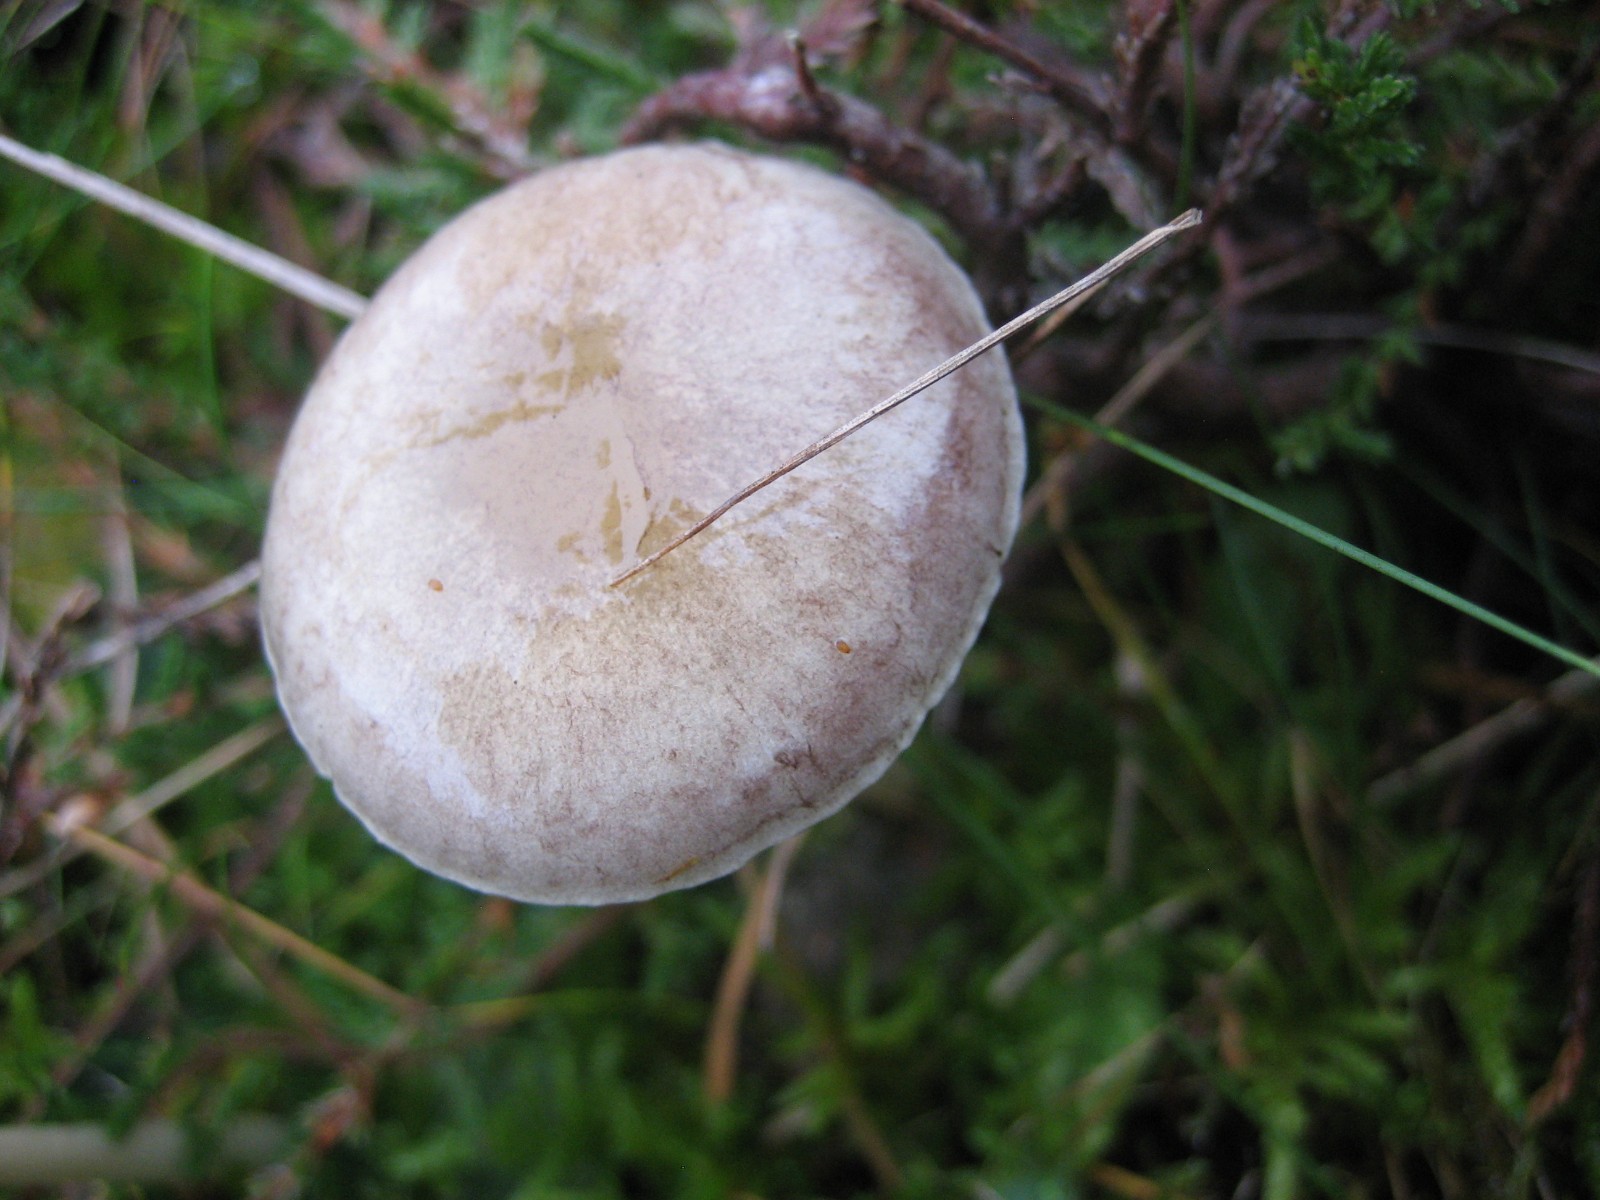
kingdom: Fungi
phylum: Basidiomycota
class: Agaricomycetes
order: Agaricales
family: Strophariaceae
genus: Protostropharia
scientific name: Protostropharia semiglobata
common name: halvkugleformet bredblad
